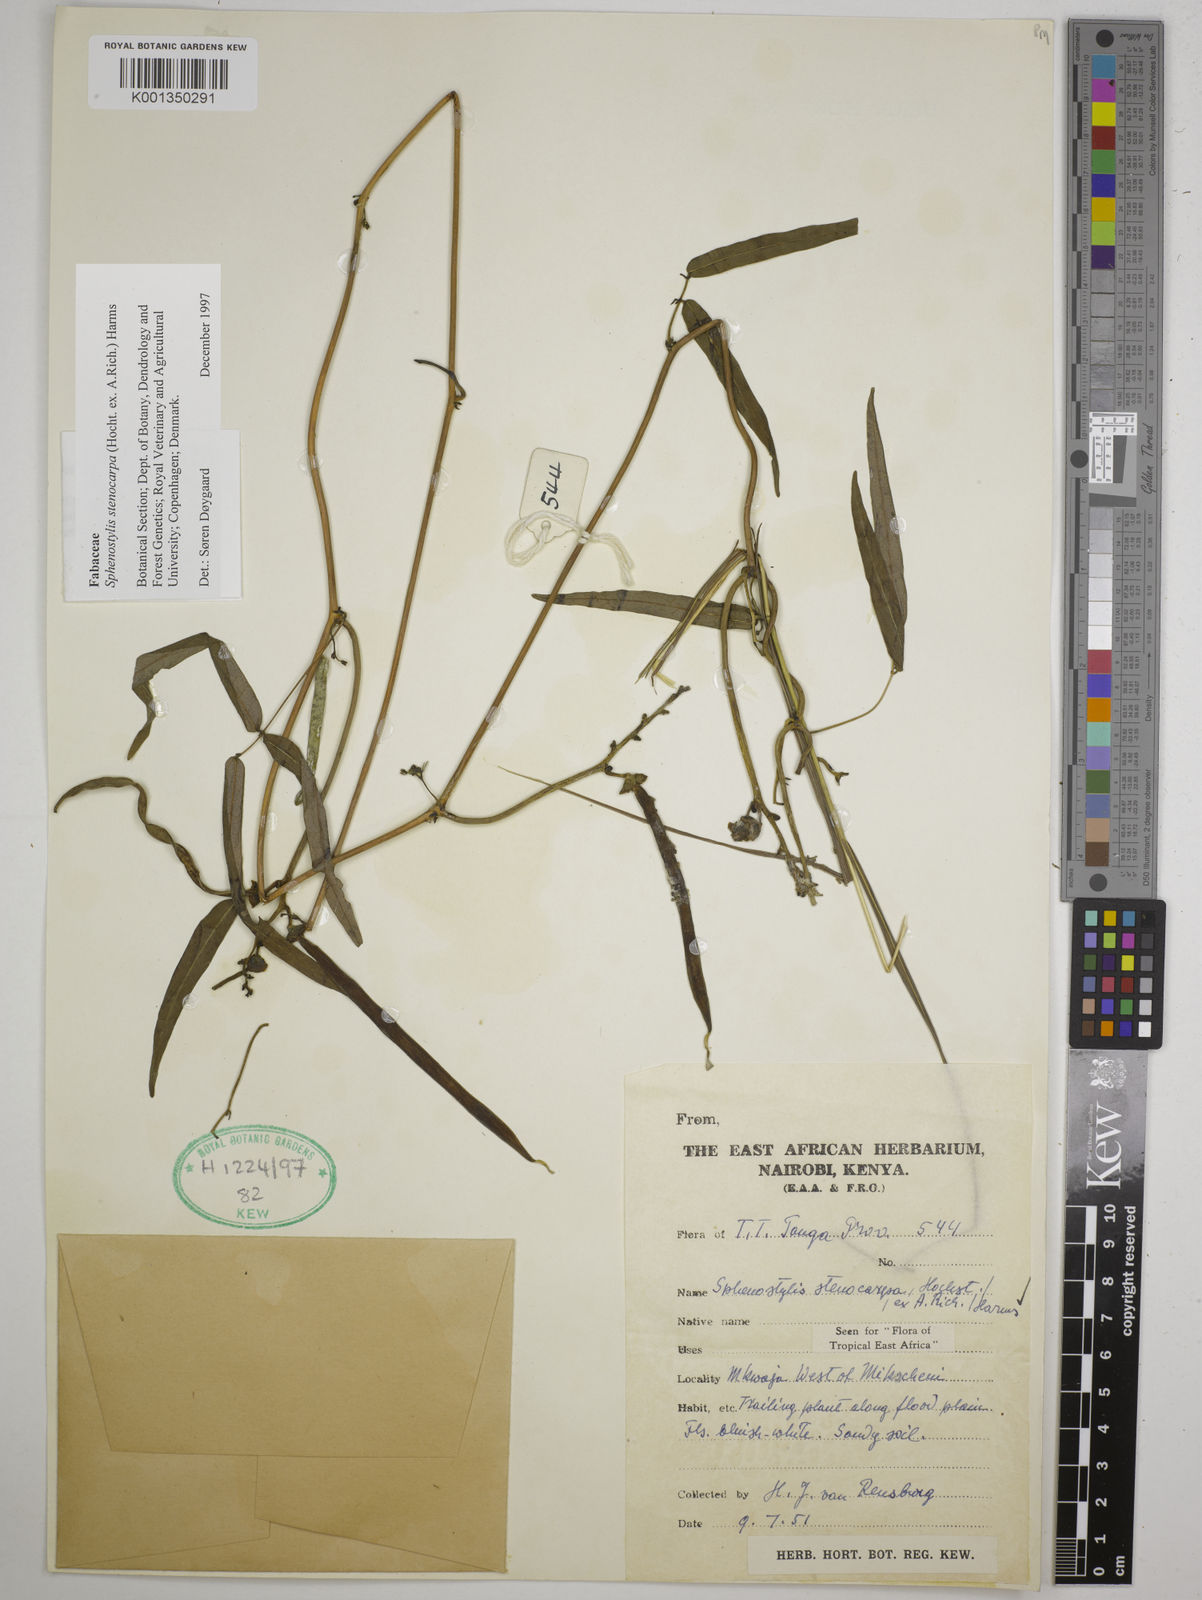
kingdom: Plantae
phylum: Tracheophyta
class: Magnoliopsida
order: Fabales
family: Fabaceae
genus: Sphenostylis
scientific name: Sphenostylis stenocarpa
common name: Yam-pea
